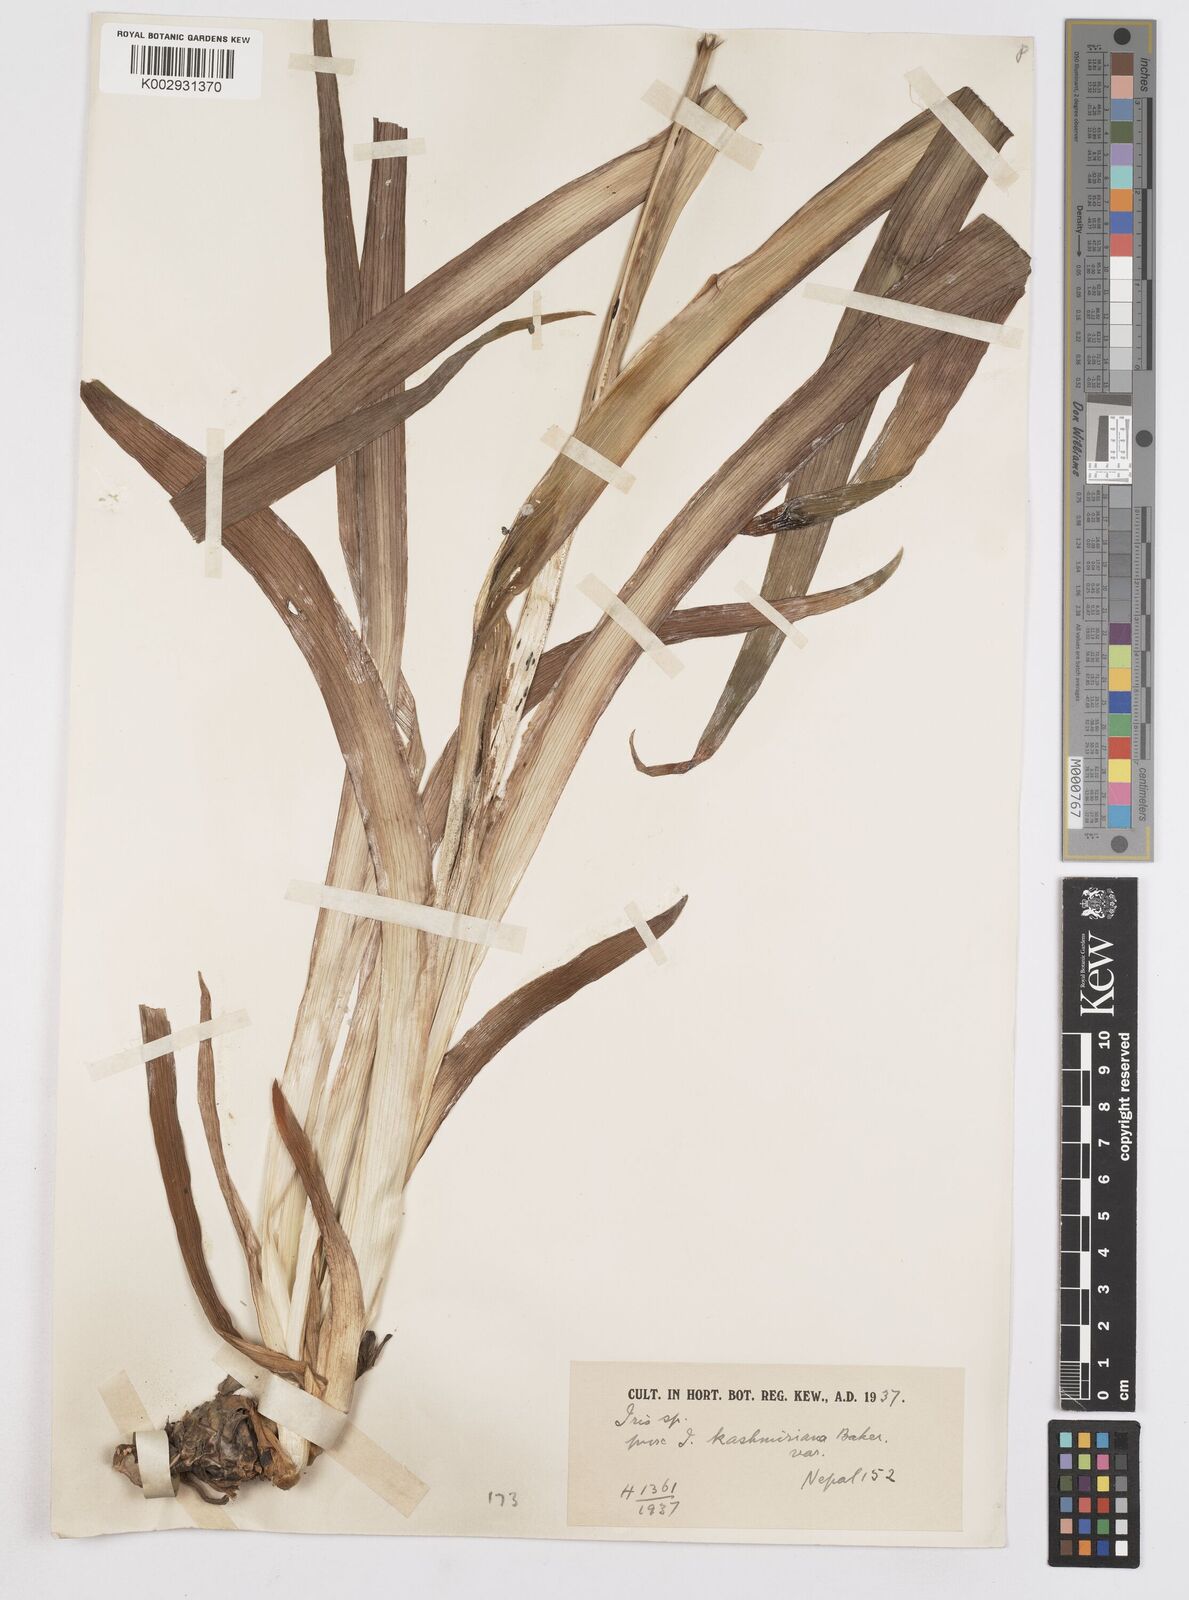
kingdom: Plantae
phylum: Tracheophyta
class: Liliopsida
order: Asparagales
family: Iridaceae
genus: Iris
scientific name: Iris kashmiriana
